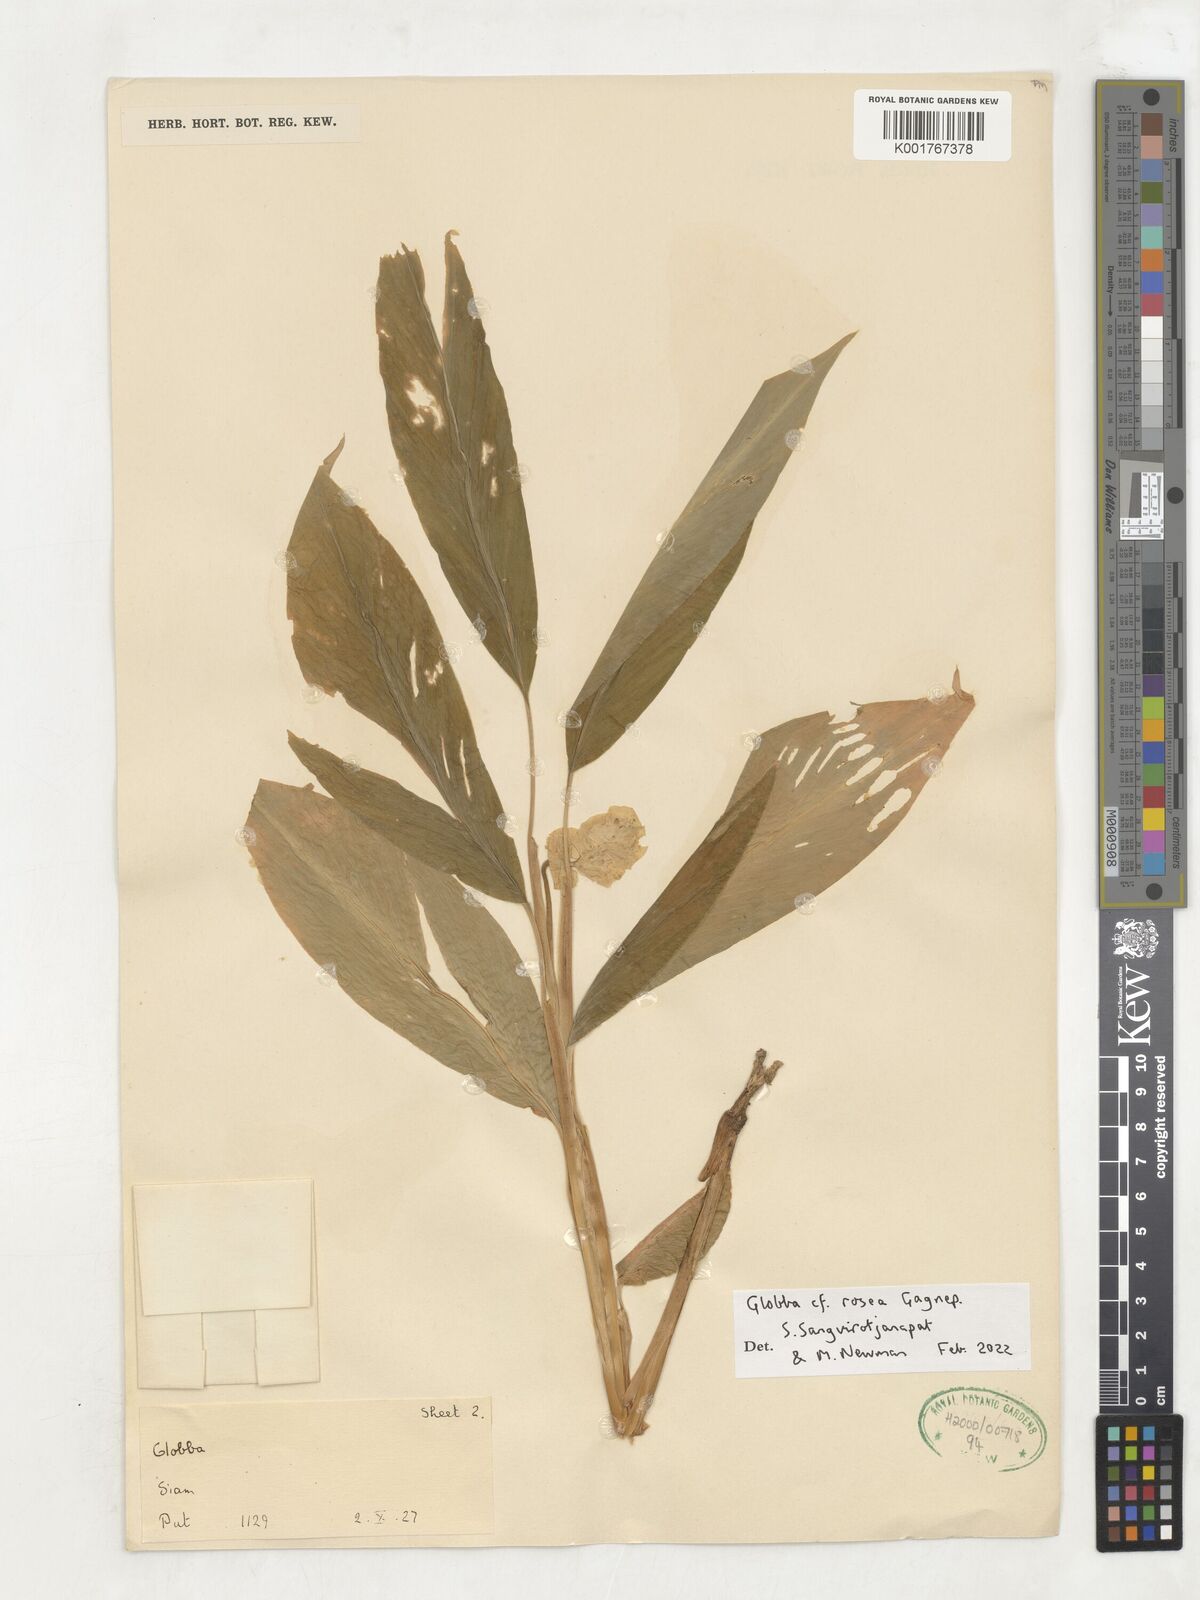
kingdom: Plantae
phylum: Tracheophyta
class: Liliopsida
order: Zingiberales
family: Zingiberaceae
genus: Globba
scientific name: Globba rosea
